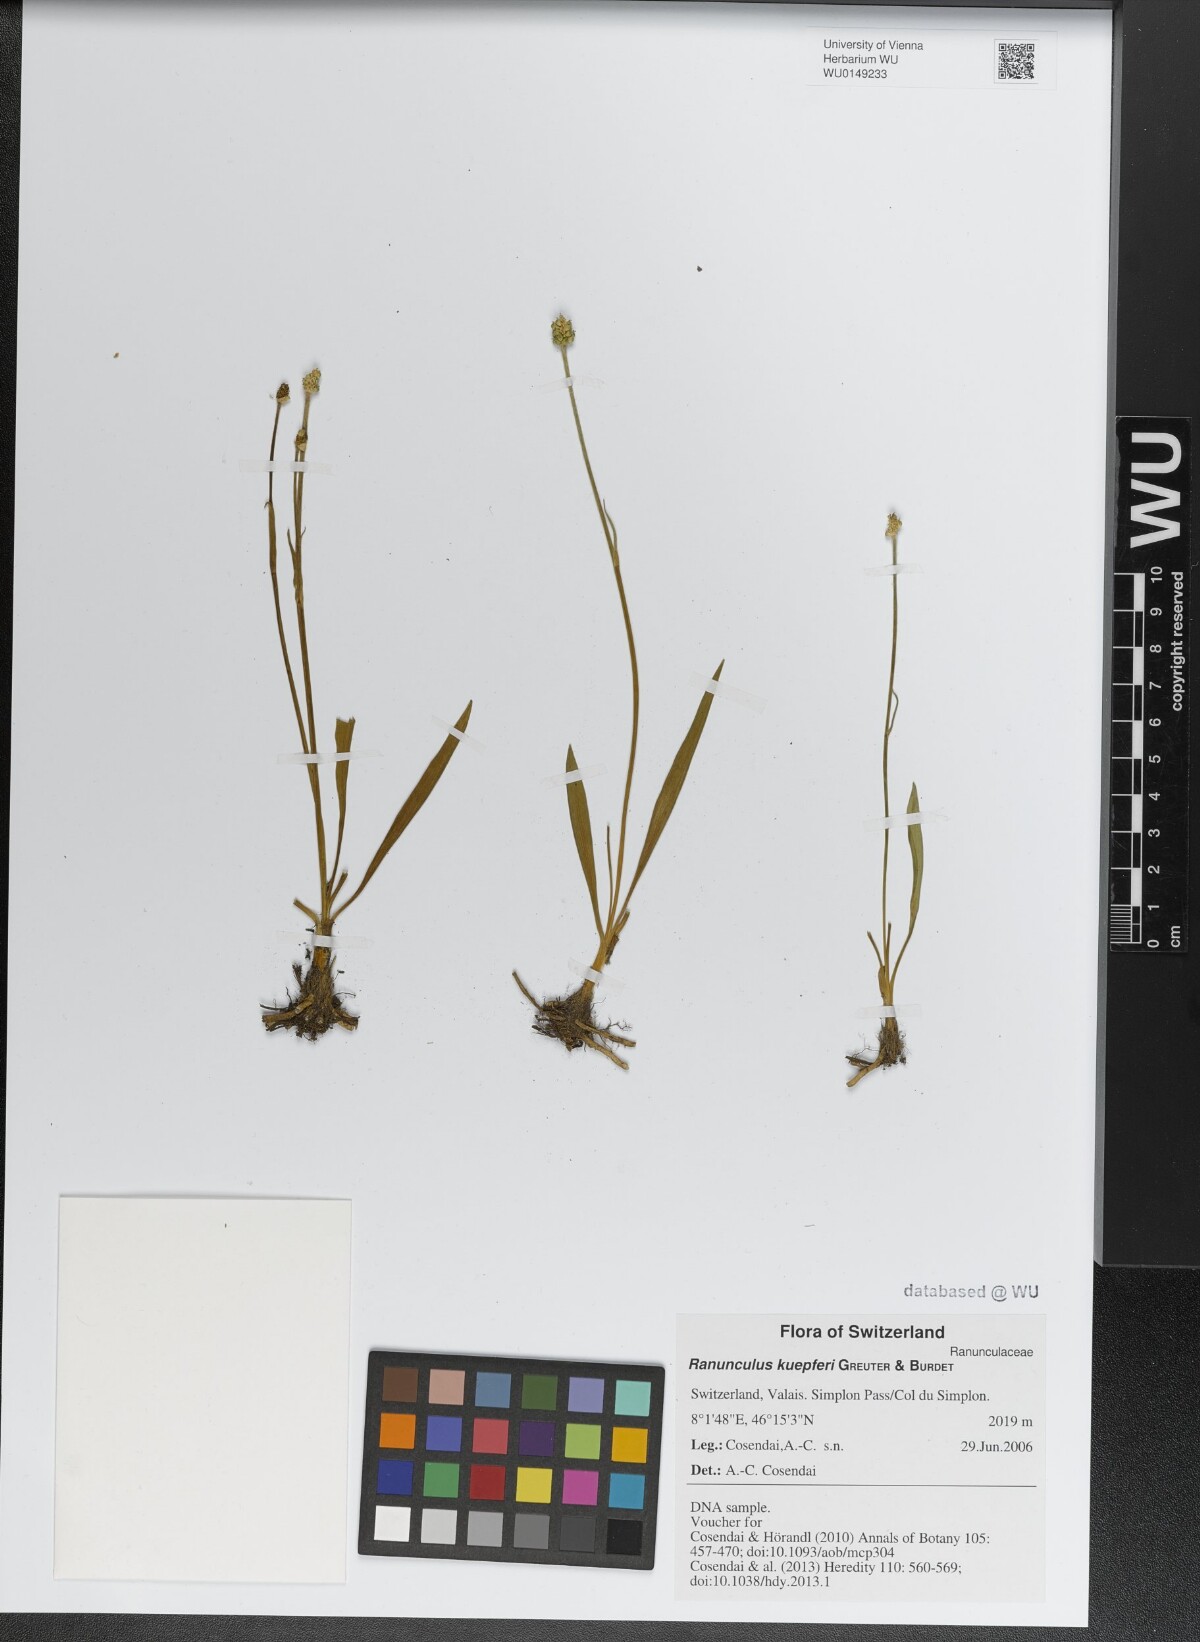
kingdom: Plantae
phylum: Tracheophyta
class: Magnoliopsida
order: Ranunculales
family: Ranunculaceae
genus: Ranunculus
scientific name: Ranunculus kuepferi
